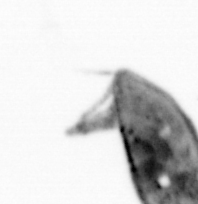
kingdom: Animalia
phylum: Arthropoda
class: Maxillopoda
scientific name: Maxillopoda
